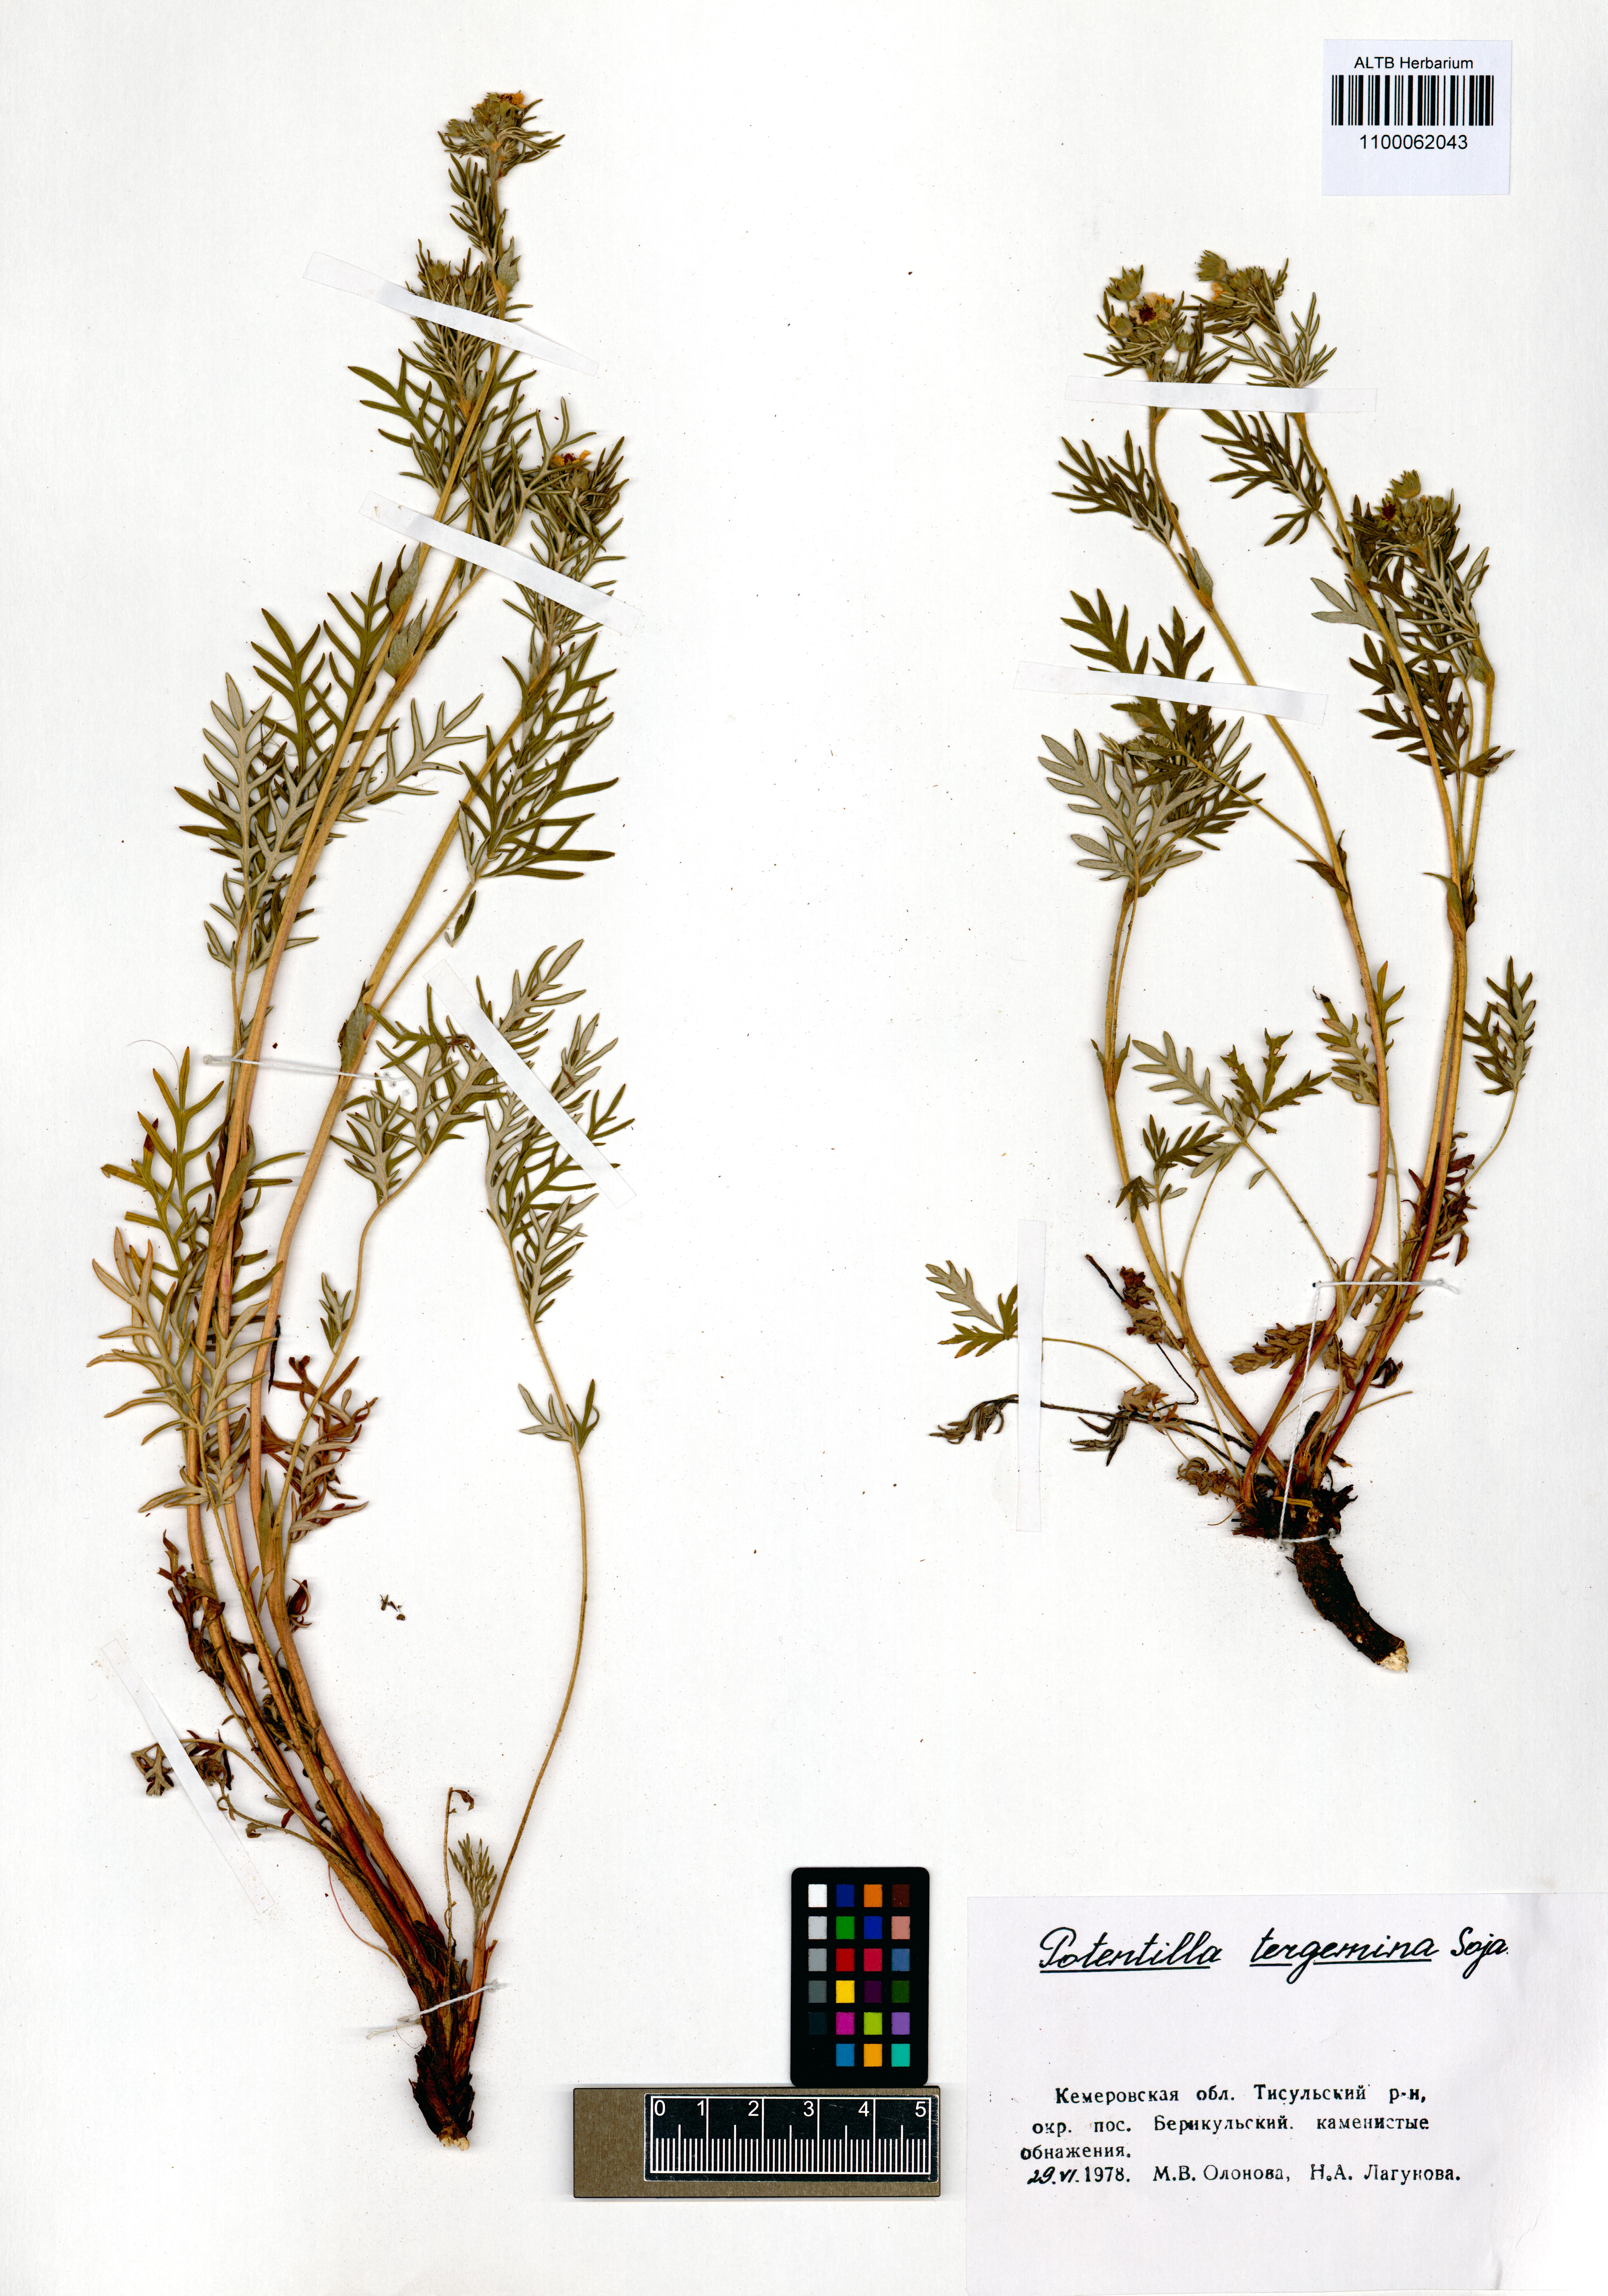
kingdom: Plantae
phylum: Tracheophyta
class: Magnoliopsida
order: Rosales
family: Rosaceae
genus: Potentilla
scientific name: Potentilla tergemina
